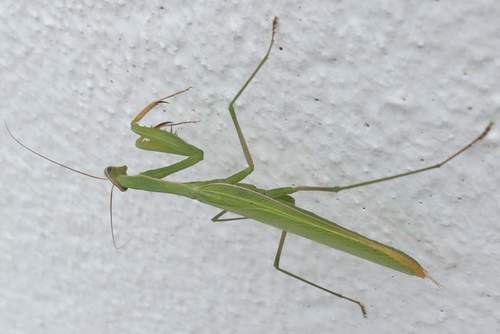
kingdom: Animalia
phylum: Arthropoda
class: Insecta
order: Mantodea
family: Mantidae
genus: Mantis
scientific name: Mantis religiosa
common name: Praying mantis
